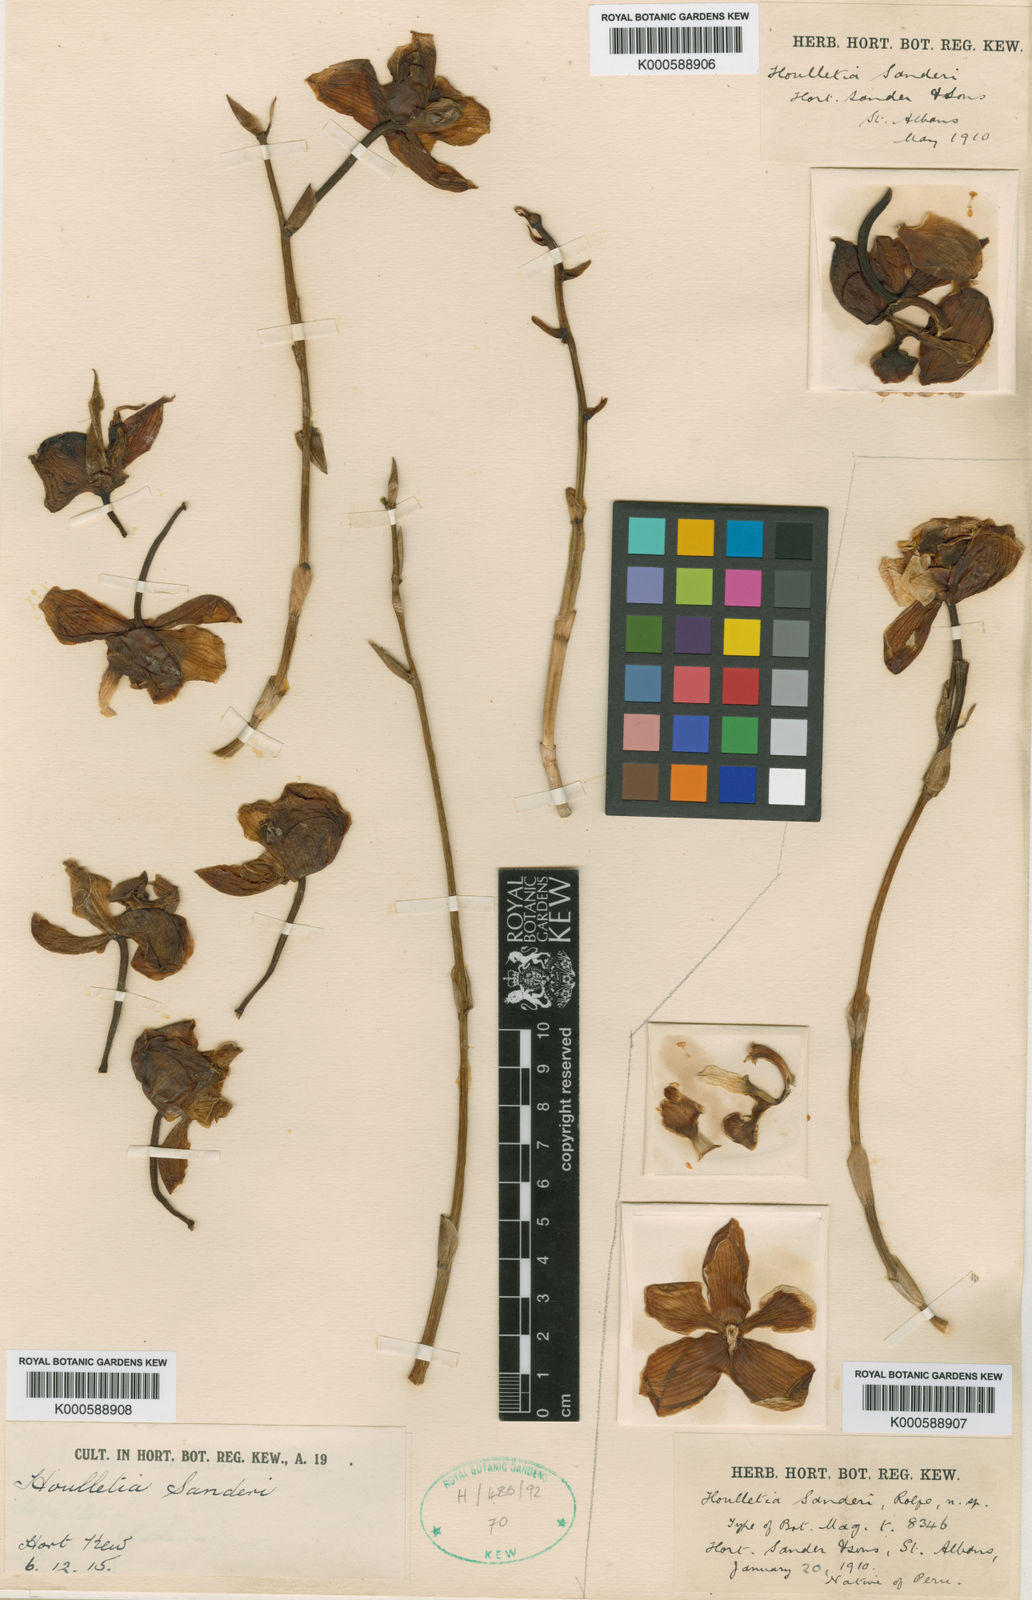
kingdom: Plantae
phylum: Tracheophyta
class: Liliopsida
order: Asparagales
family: Orchidaceae
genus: Houlletia
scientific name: Houlletia
